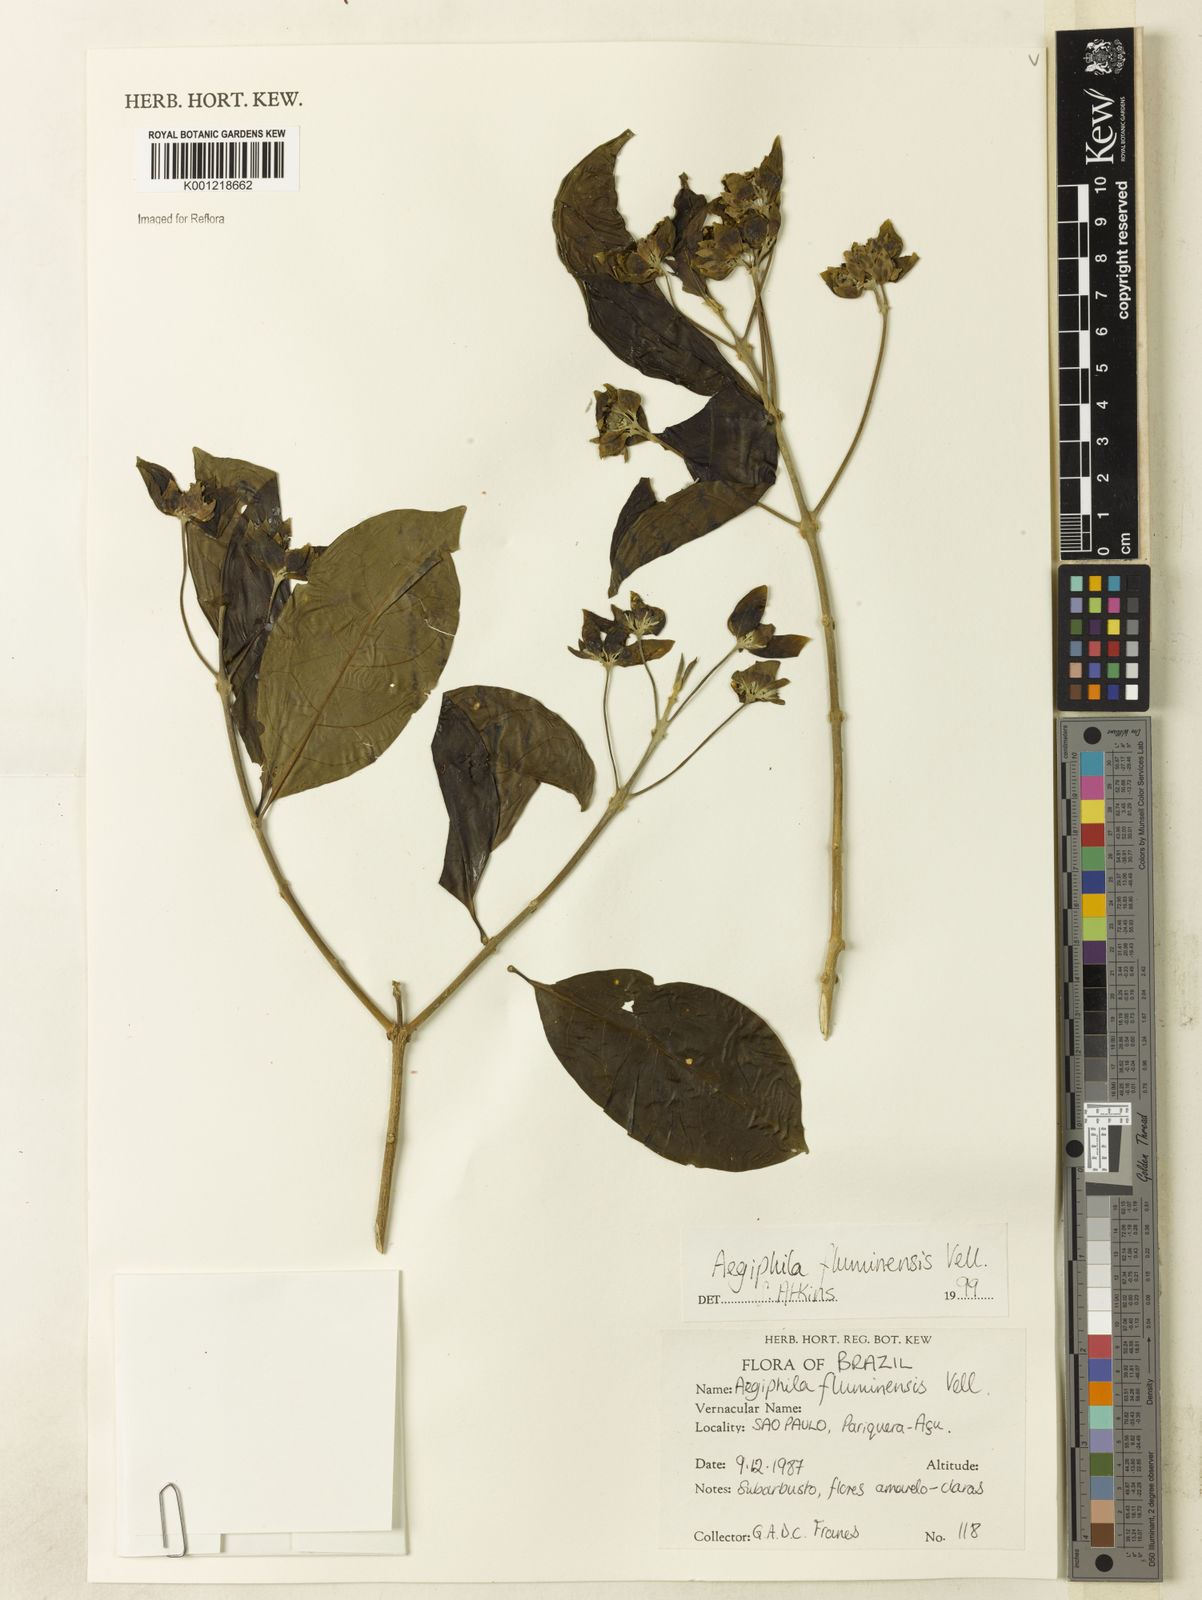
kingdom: Plantae
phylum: Tracheophyta
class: Magnoliopsida
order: Lamiales
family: Lamiaceae
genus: Aegiphila
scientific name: Aegiphila fluminensis
